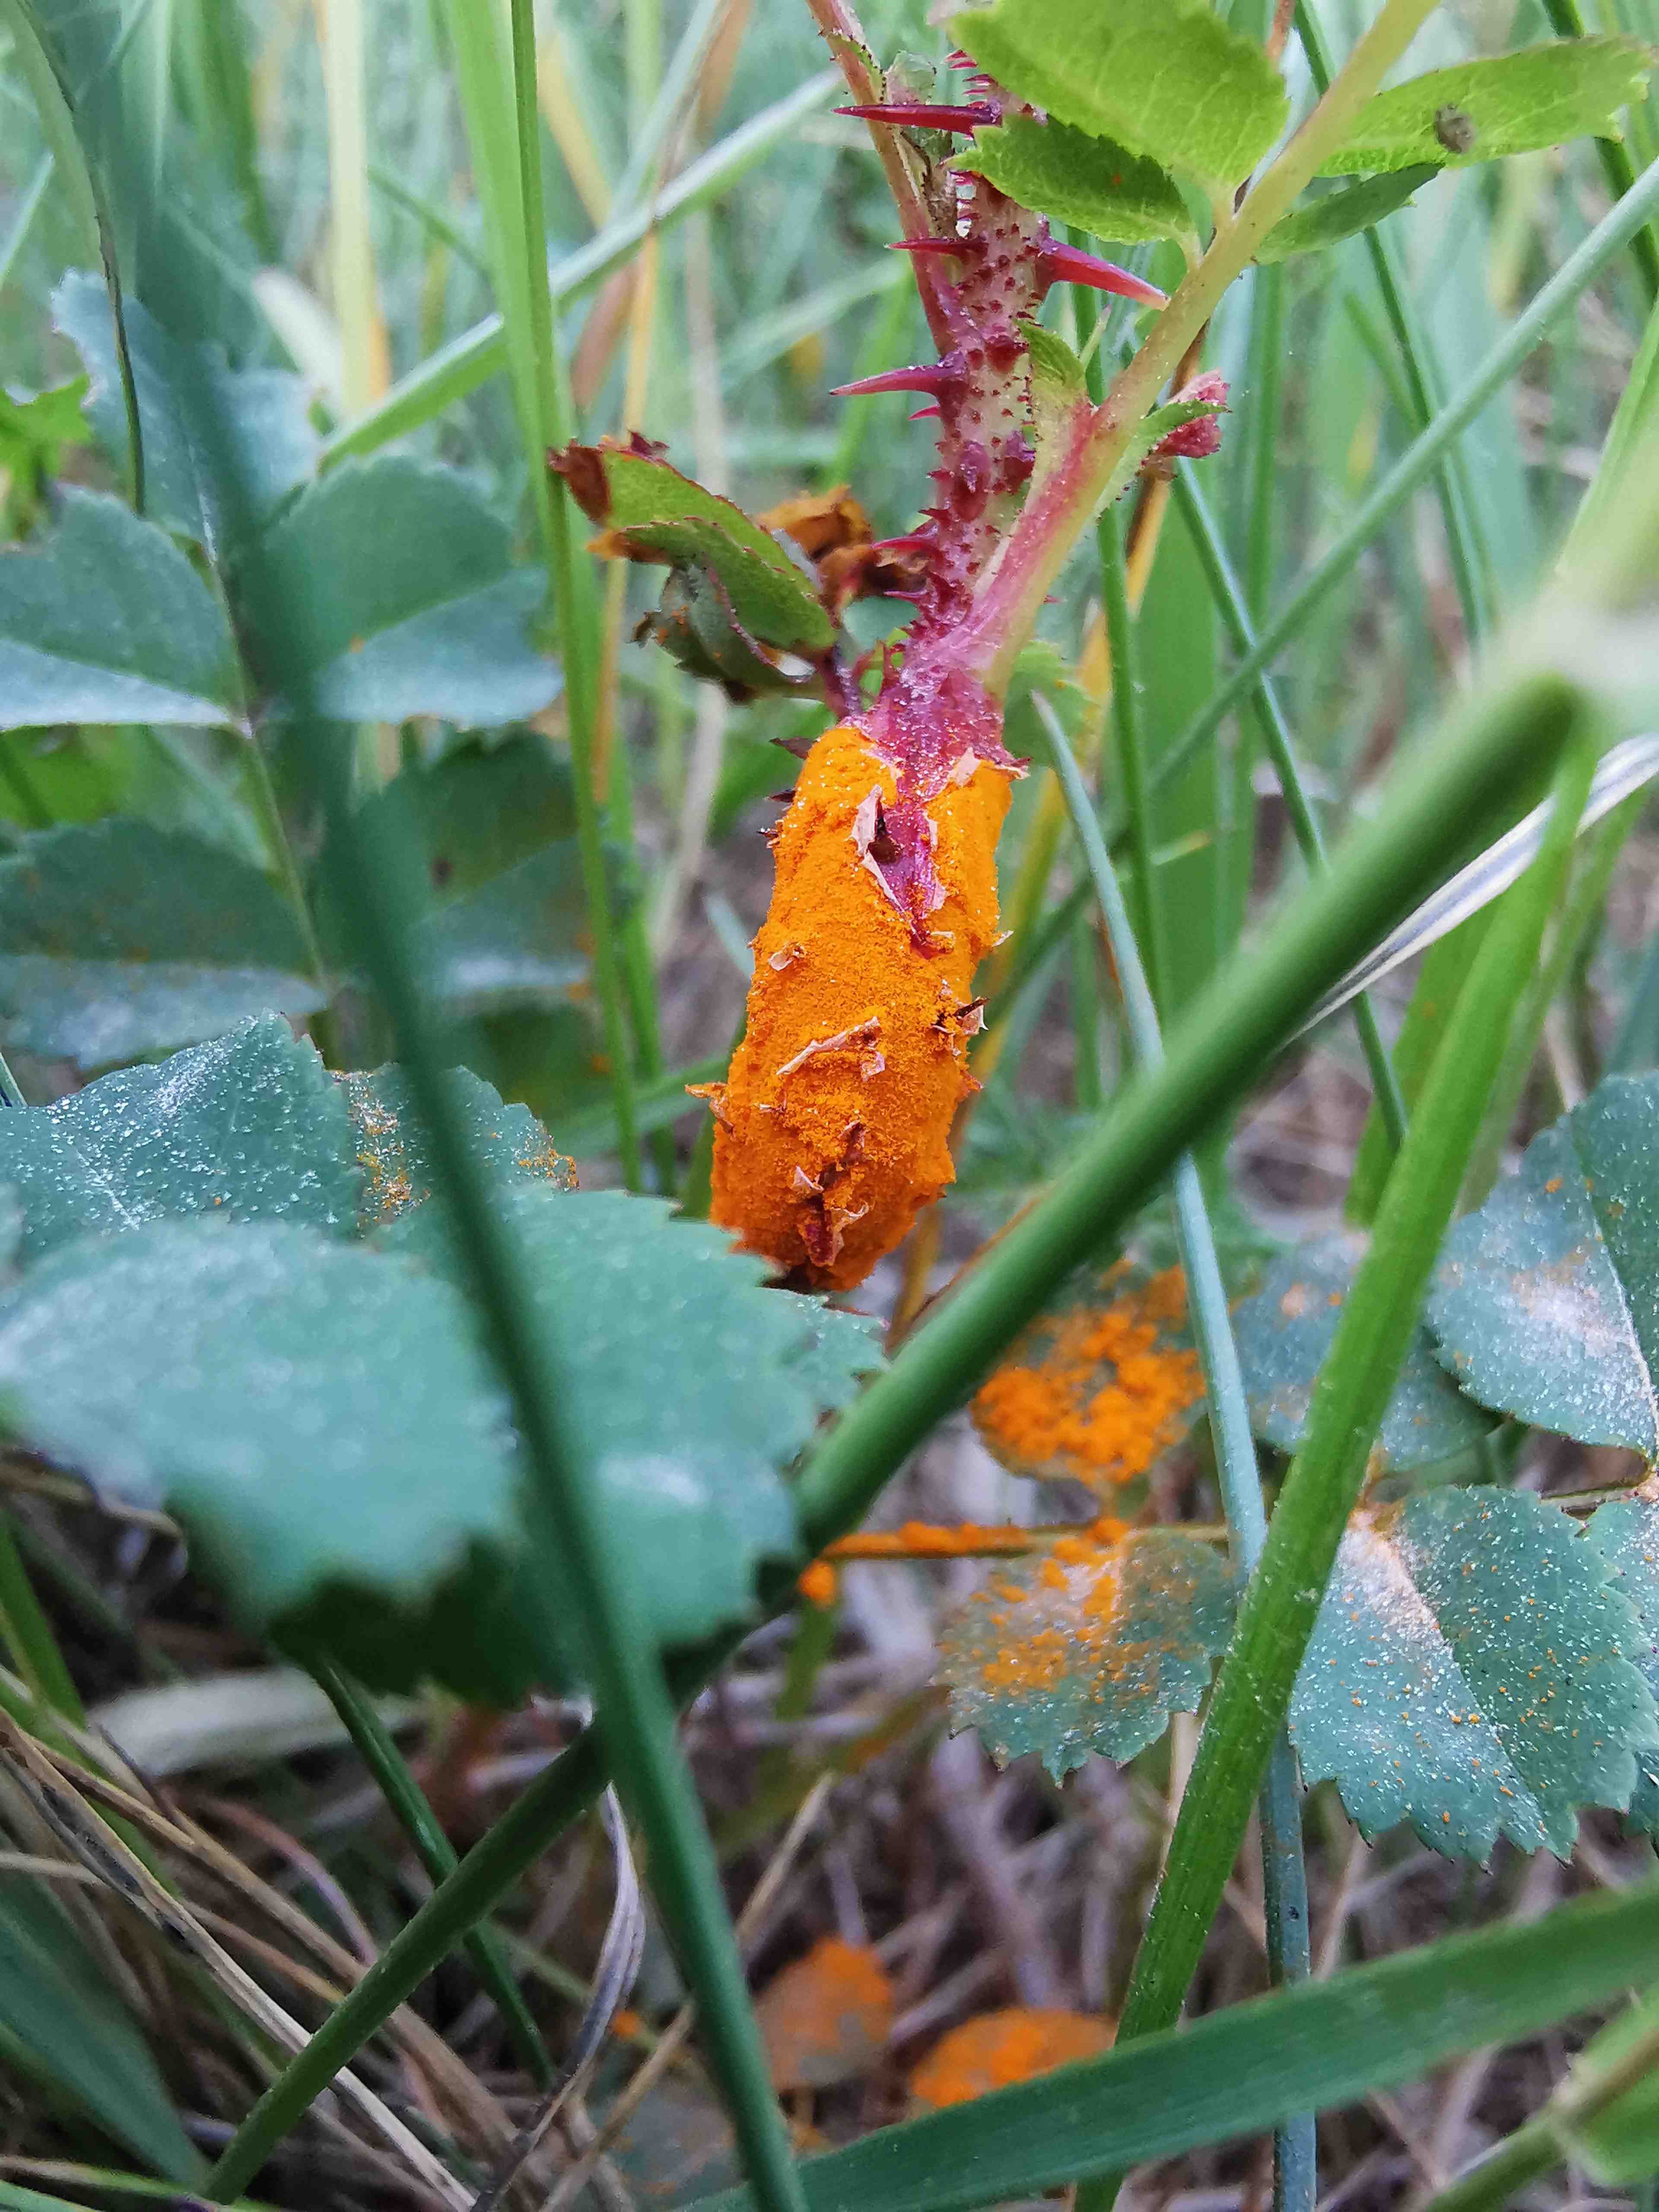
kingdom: Fungi
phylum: Basidiomycota
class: Pucciniomycetes
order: Pucciniales
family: Phragmidiaceae
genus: Phragmidium
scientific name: Phragmidium rosae-pimpinellifoliae
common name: Burnet rose rust
